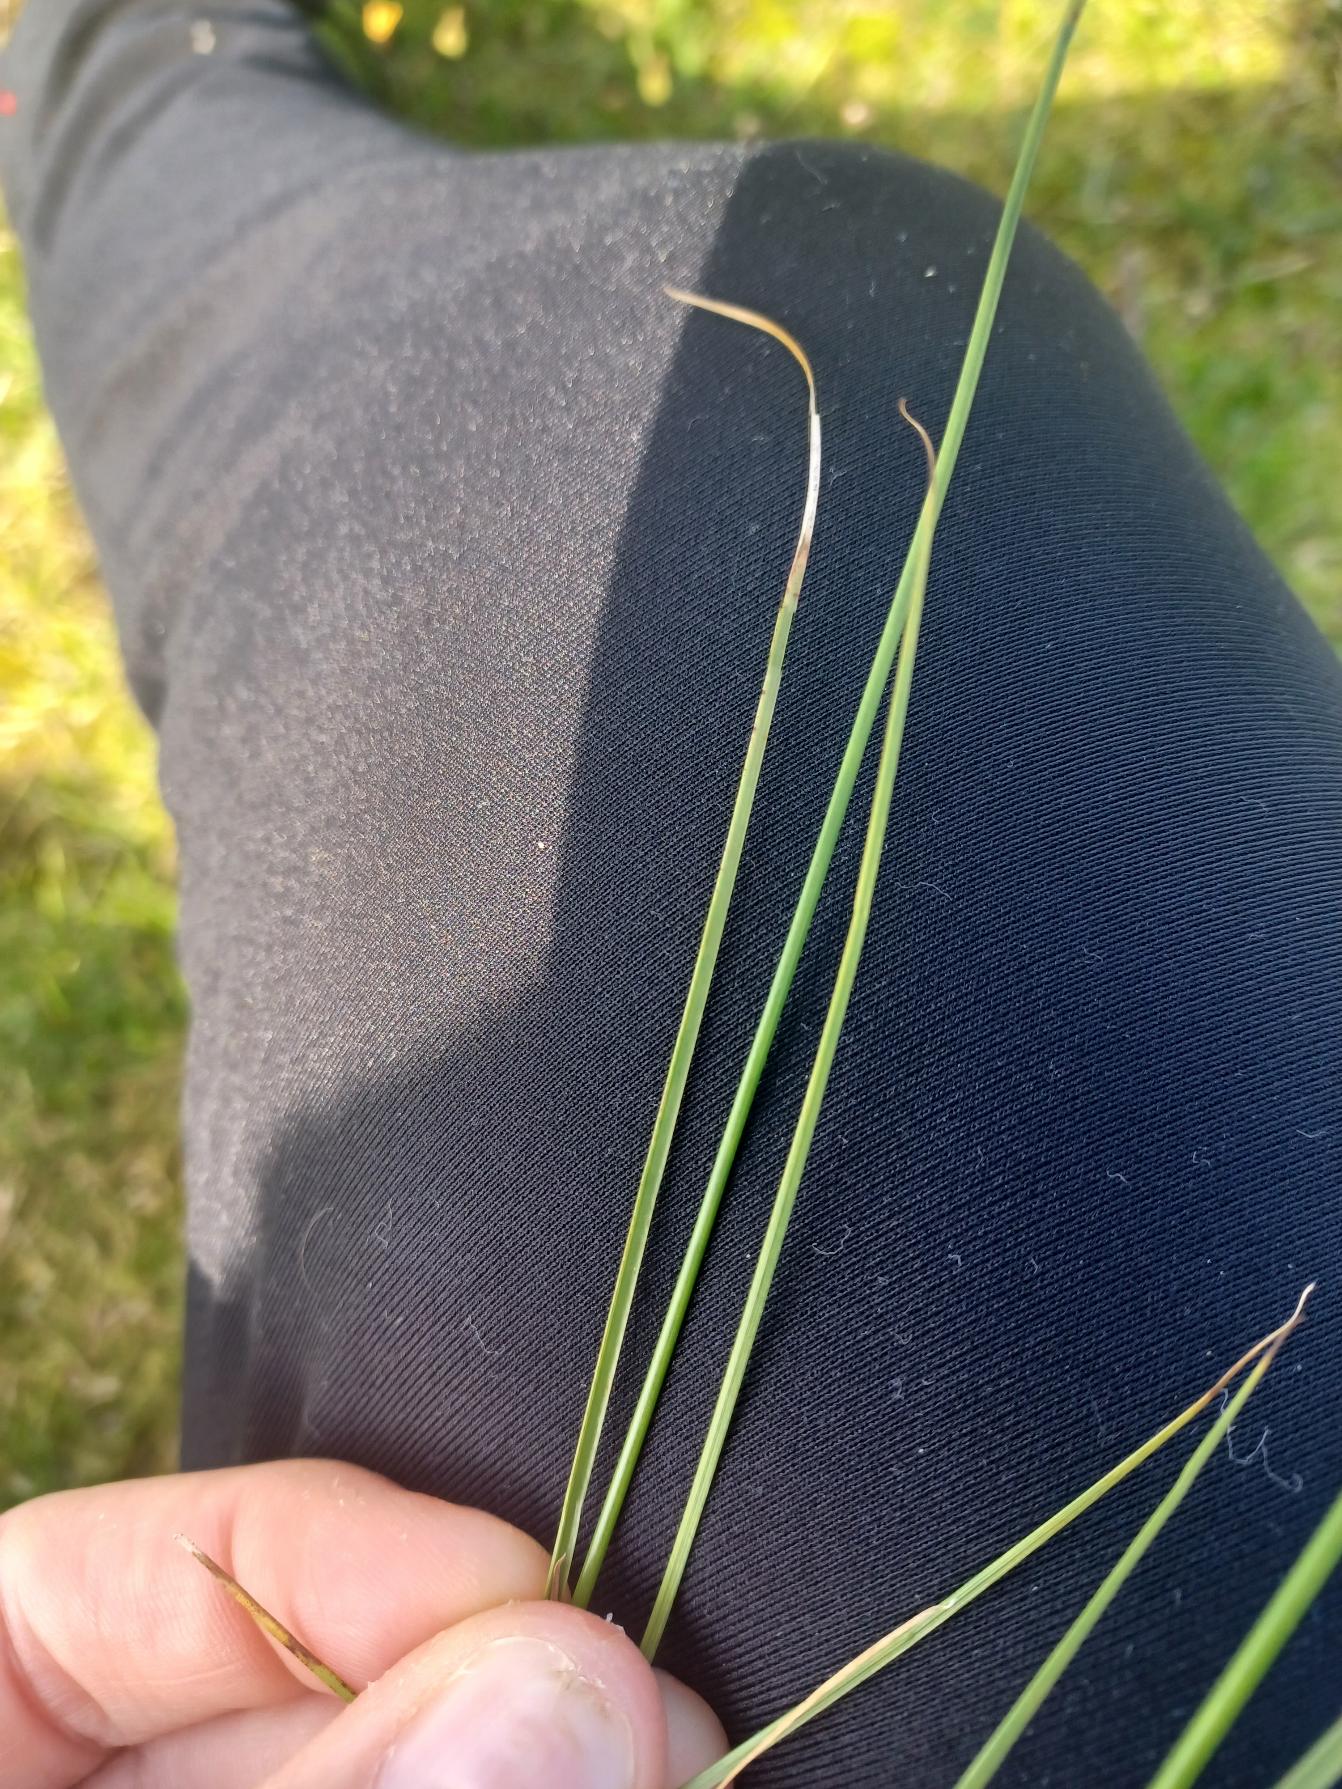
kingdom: Plantae
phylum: Tracheophyta
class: Liliopsida
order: Poales
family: Juncaceae
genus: Juncus
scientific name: Juncus compressus
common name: Fladstrået siv
